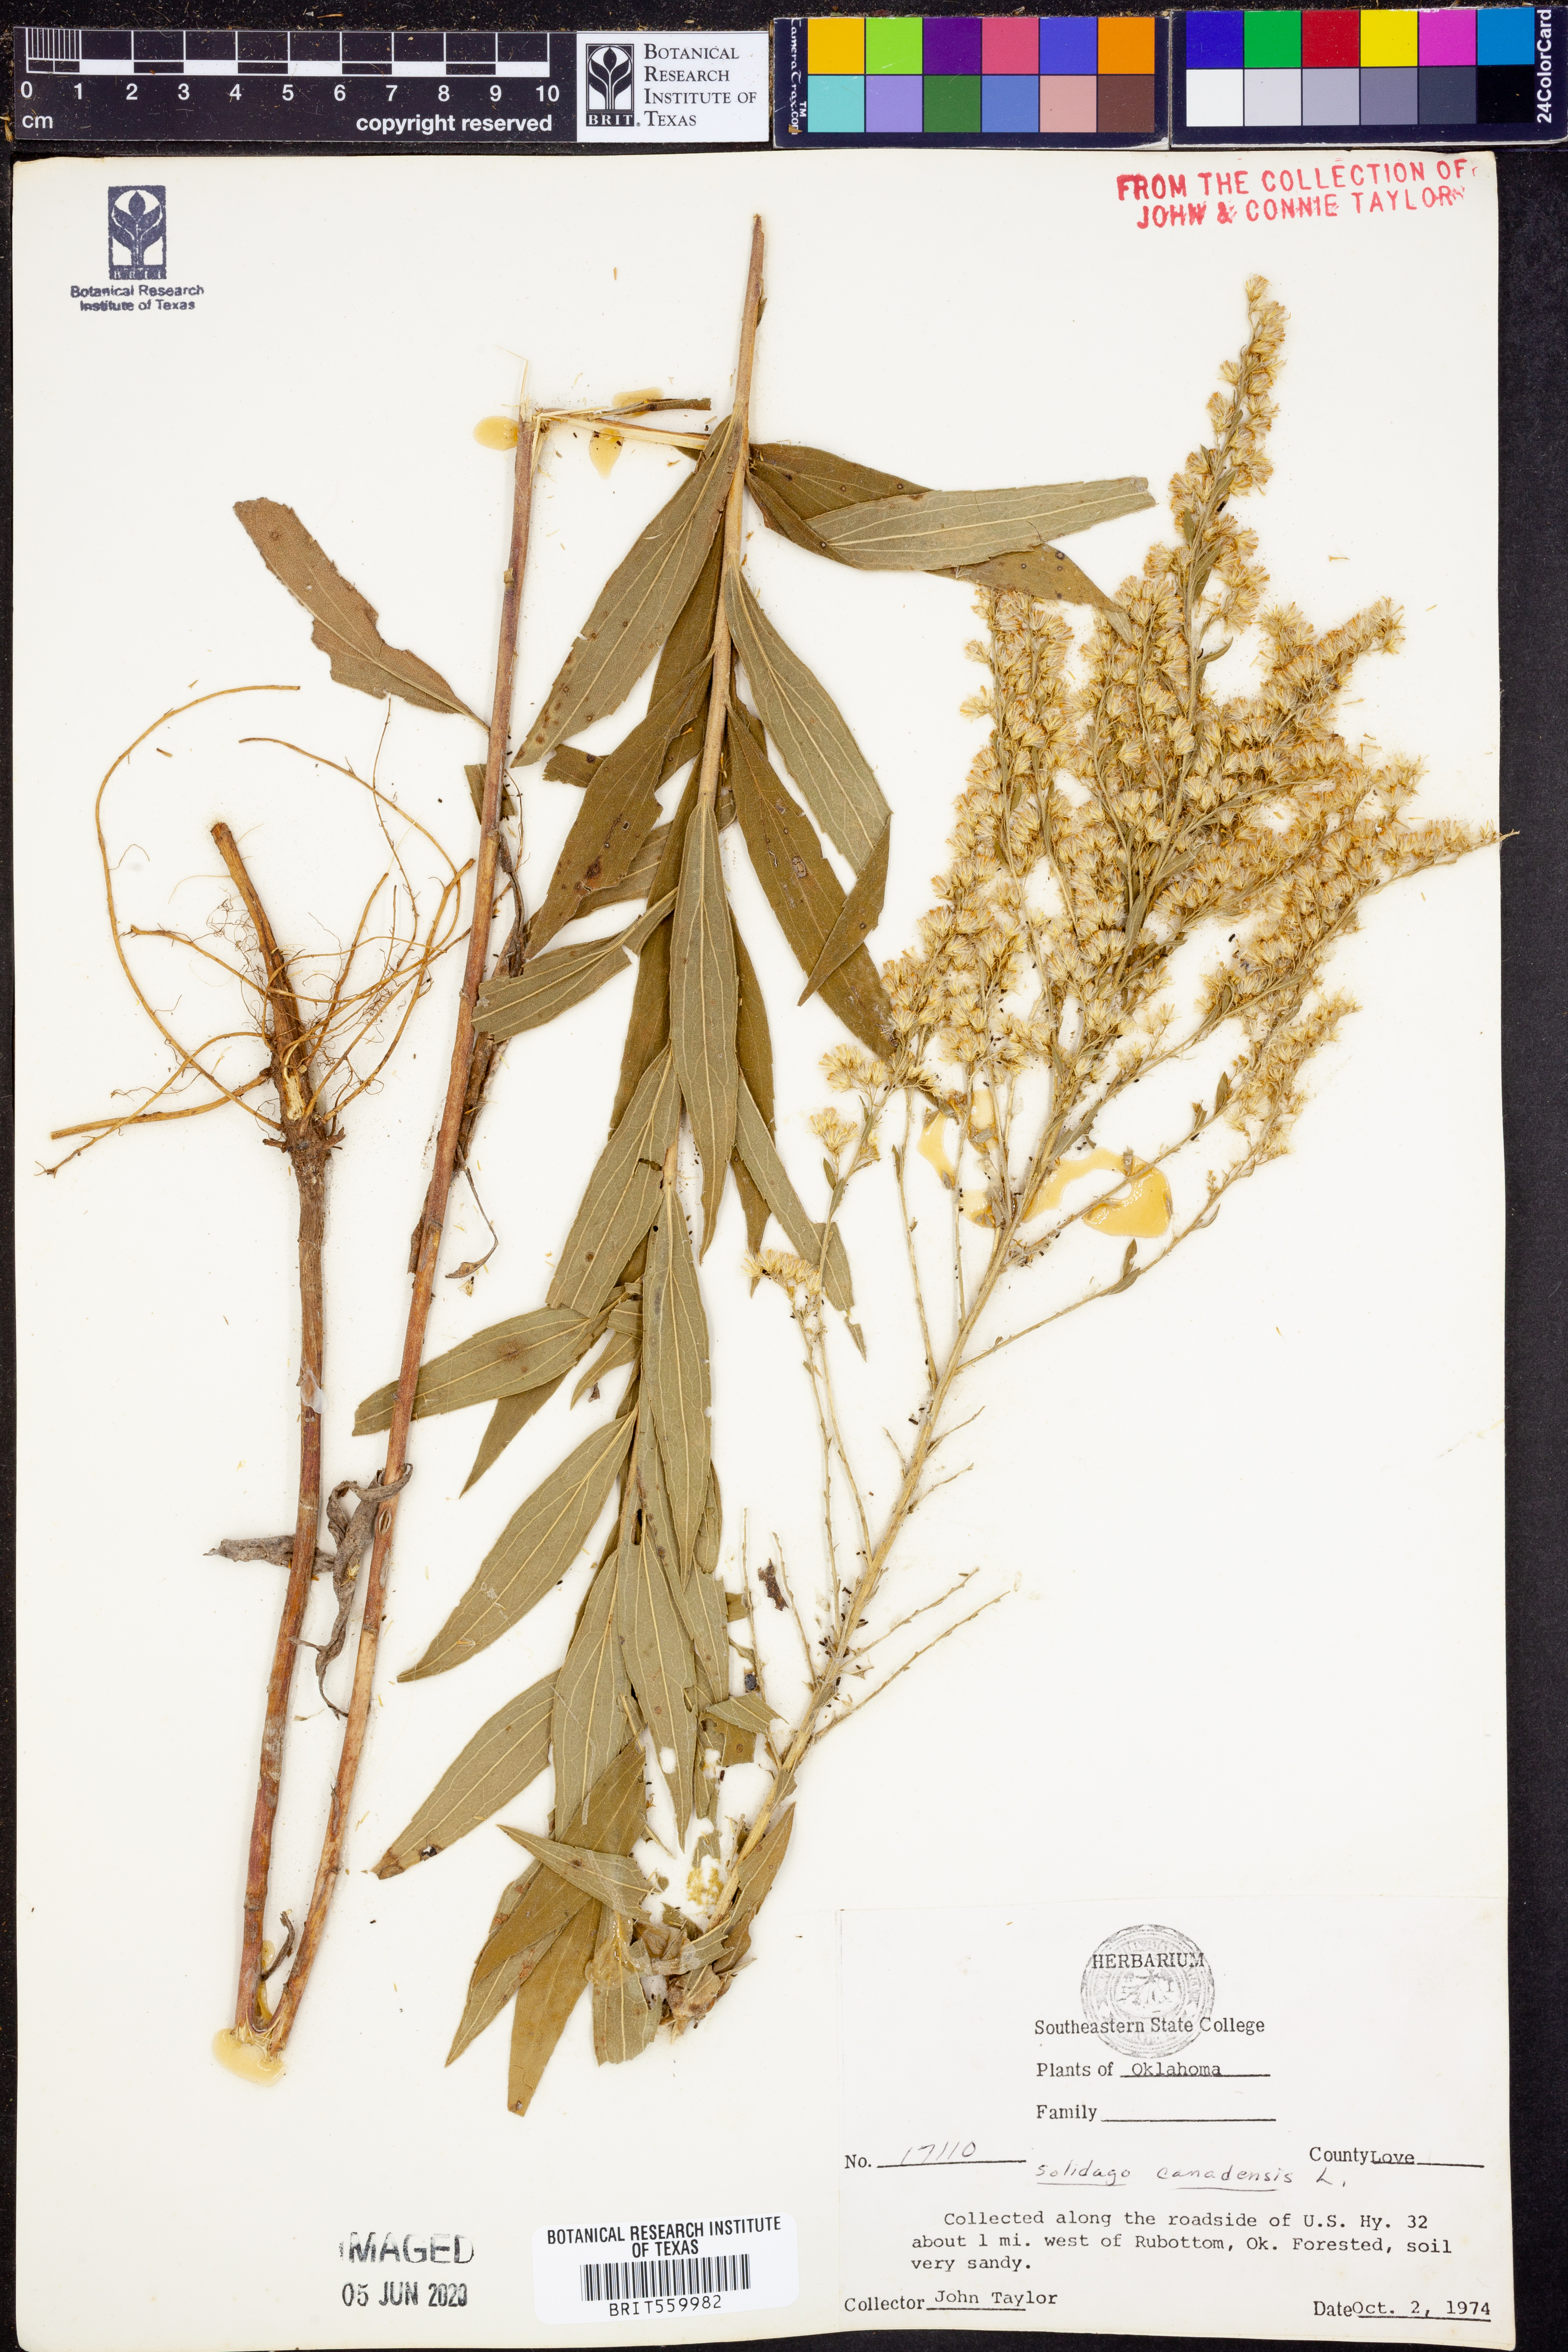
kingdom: Plantae
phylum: Tracheophyta
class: Magnoliopsida
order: Asterales
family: Asteraceae
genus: Solidago
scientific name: Solidago canadensis
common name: Canada goldenrod
